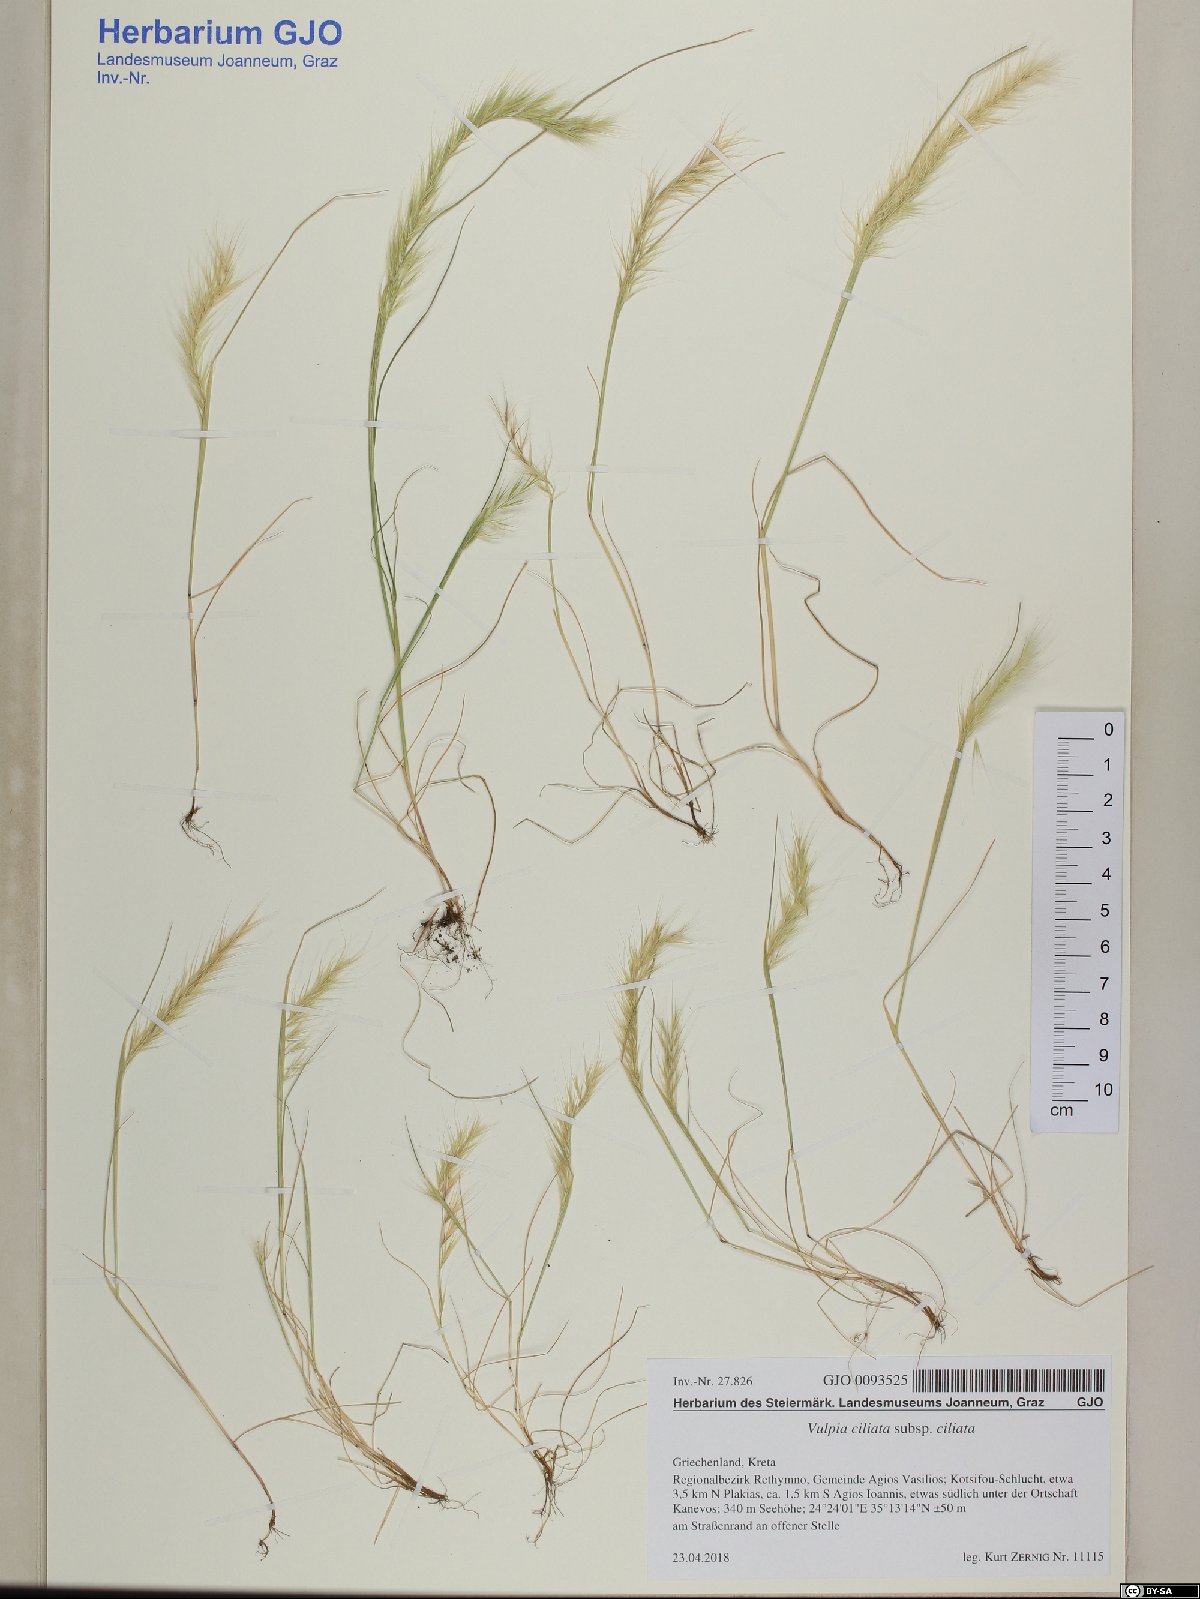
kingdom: Plantae
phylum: Tracheophyta
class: Liliopsida
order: Poales
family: Poaceae
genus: Festuca
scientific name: Festuca ambigua
